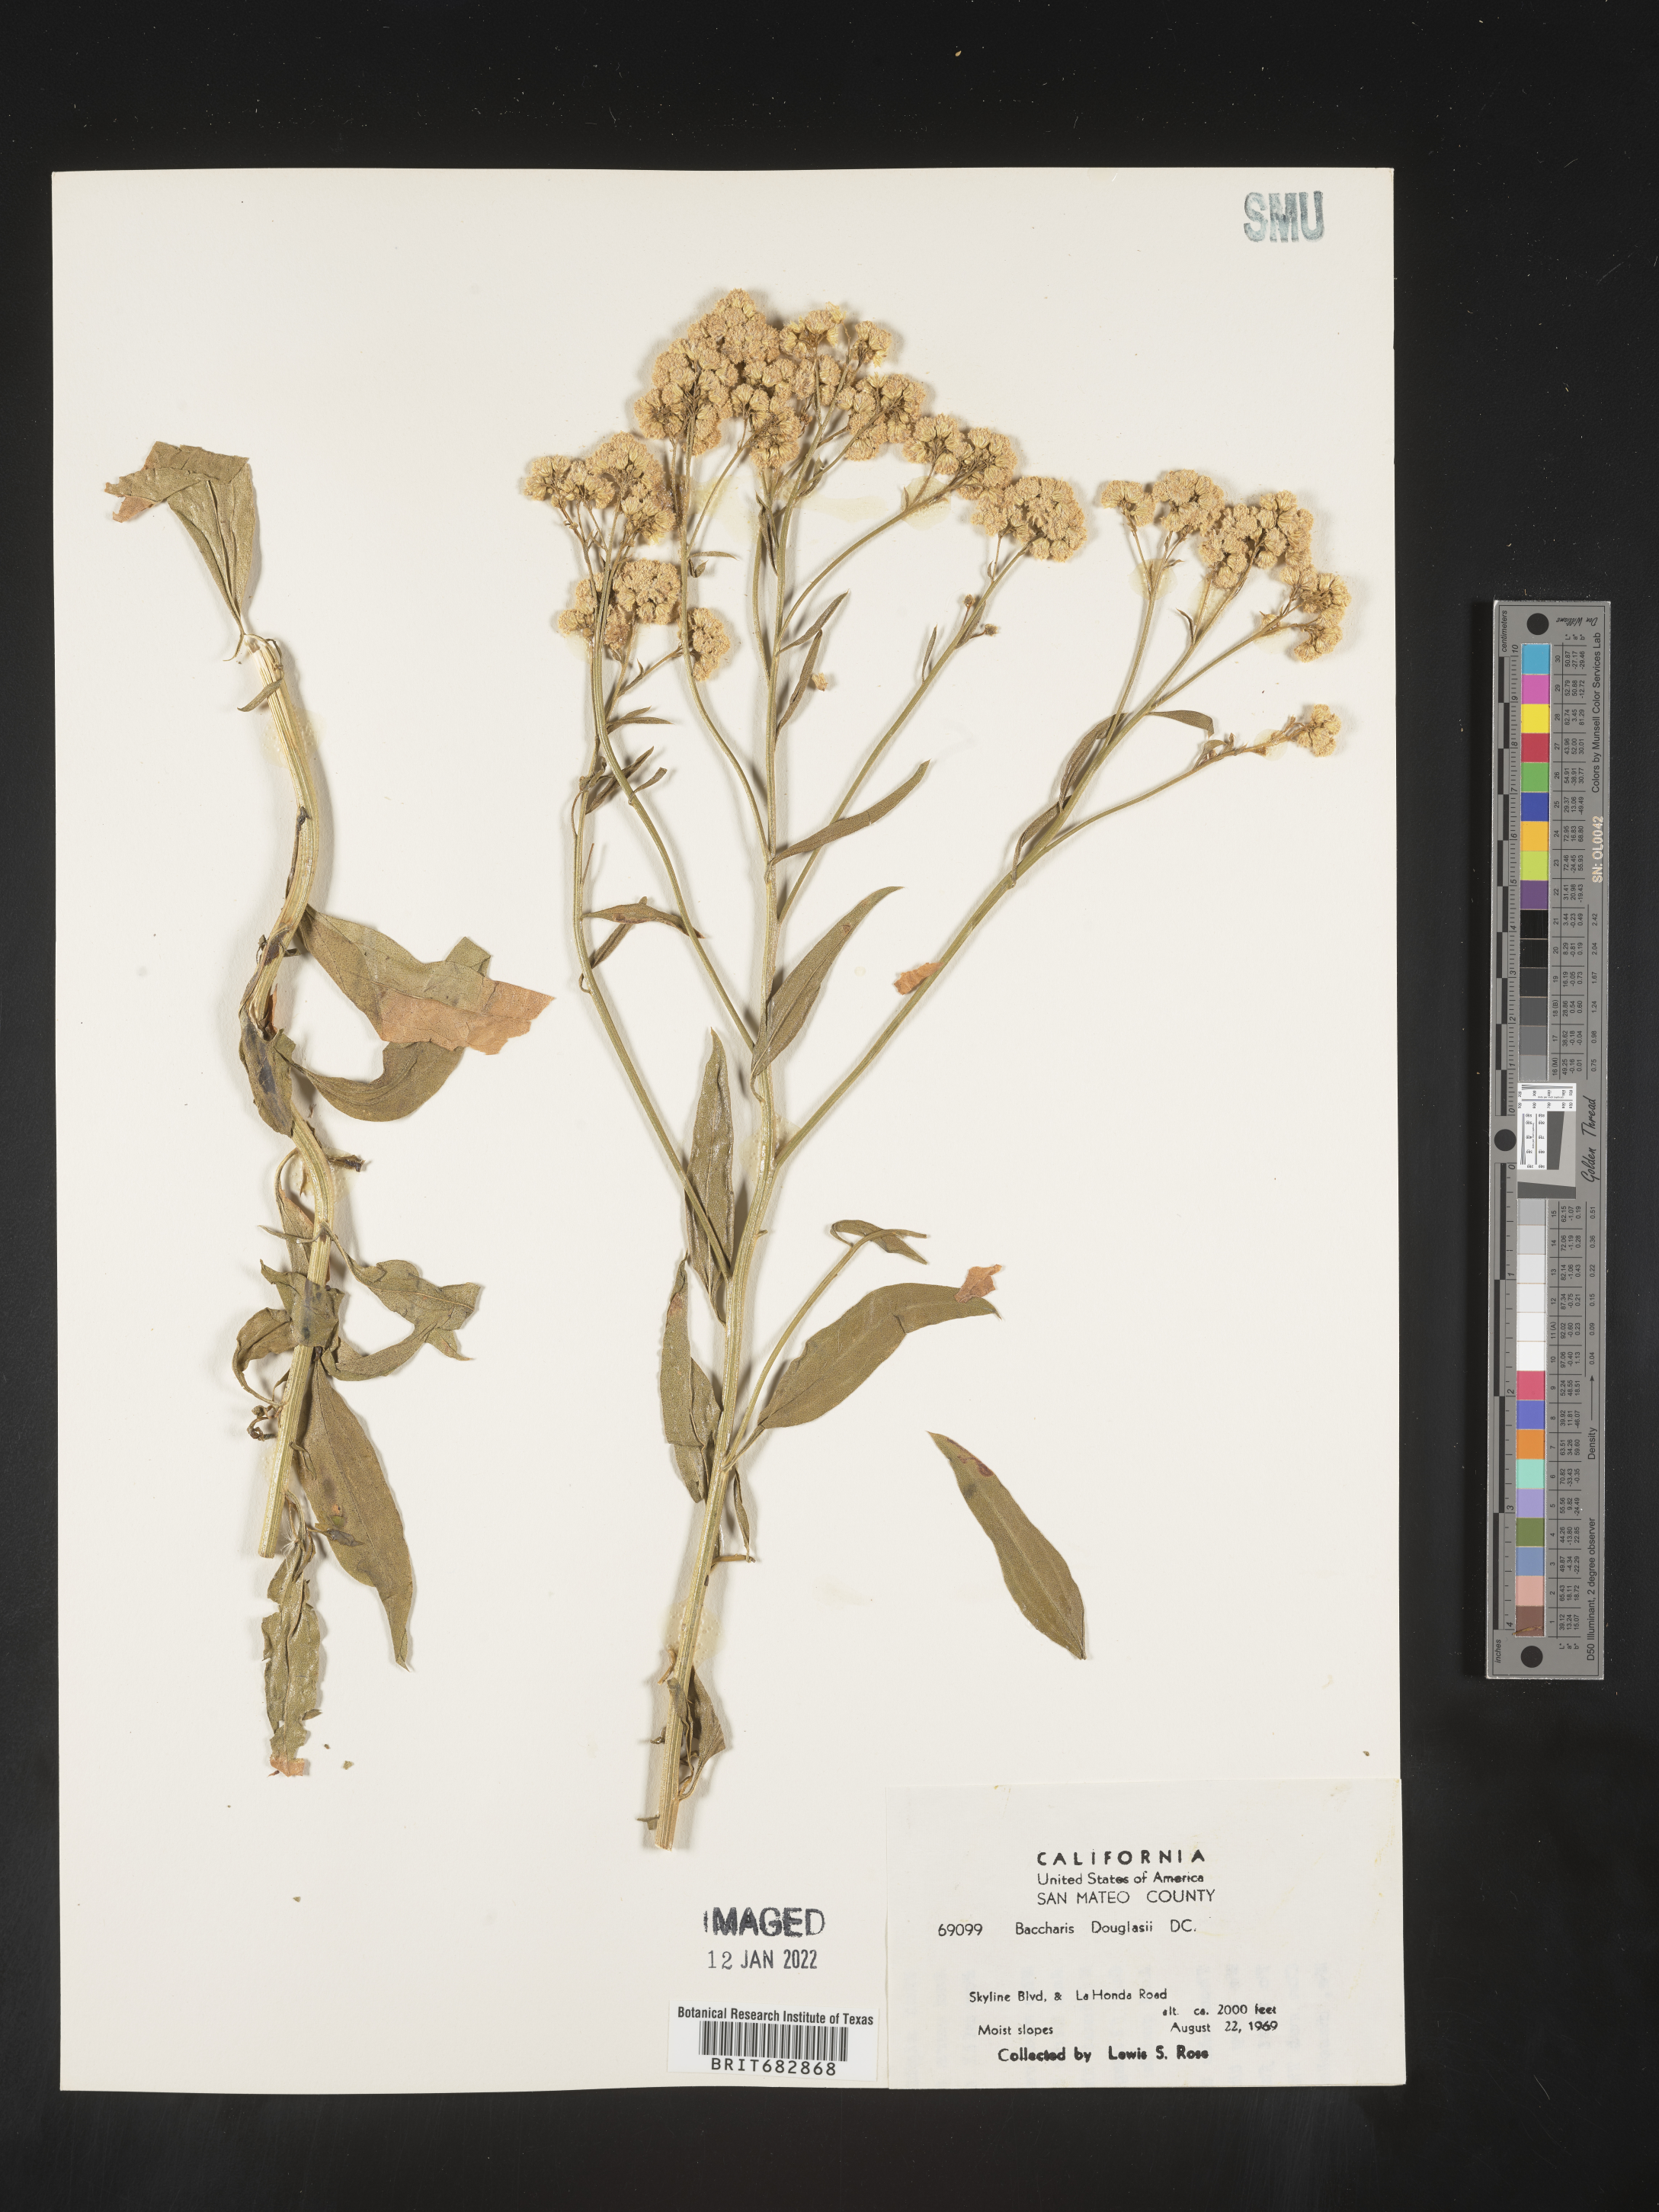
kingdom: Plantae
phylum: Tracheophyta
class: Magnoliopsida
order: Asterales
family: Asteraceae
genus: Baccharis
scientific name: Baccharis douglasii
